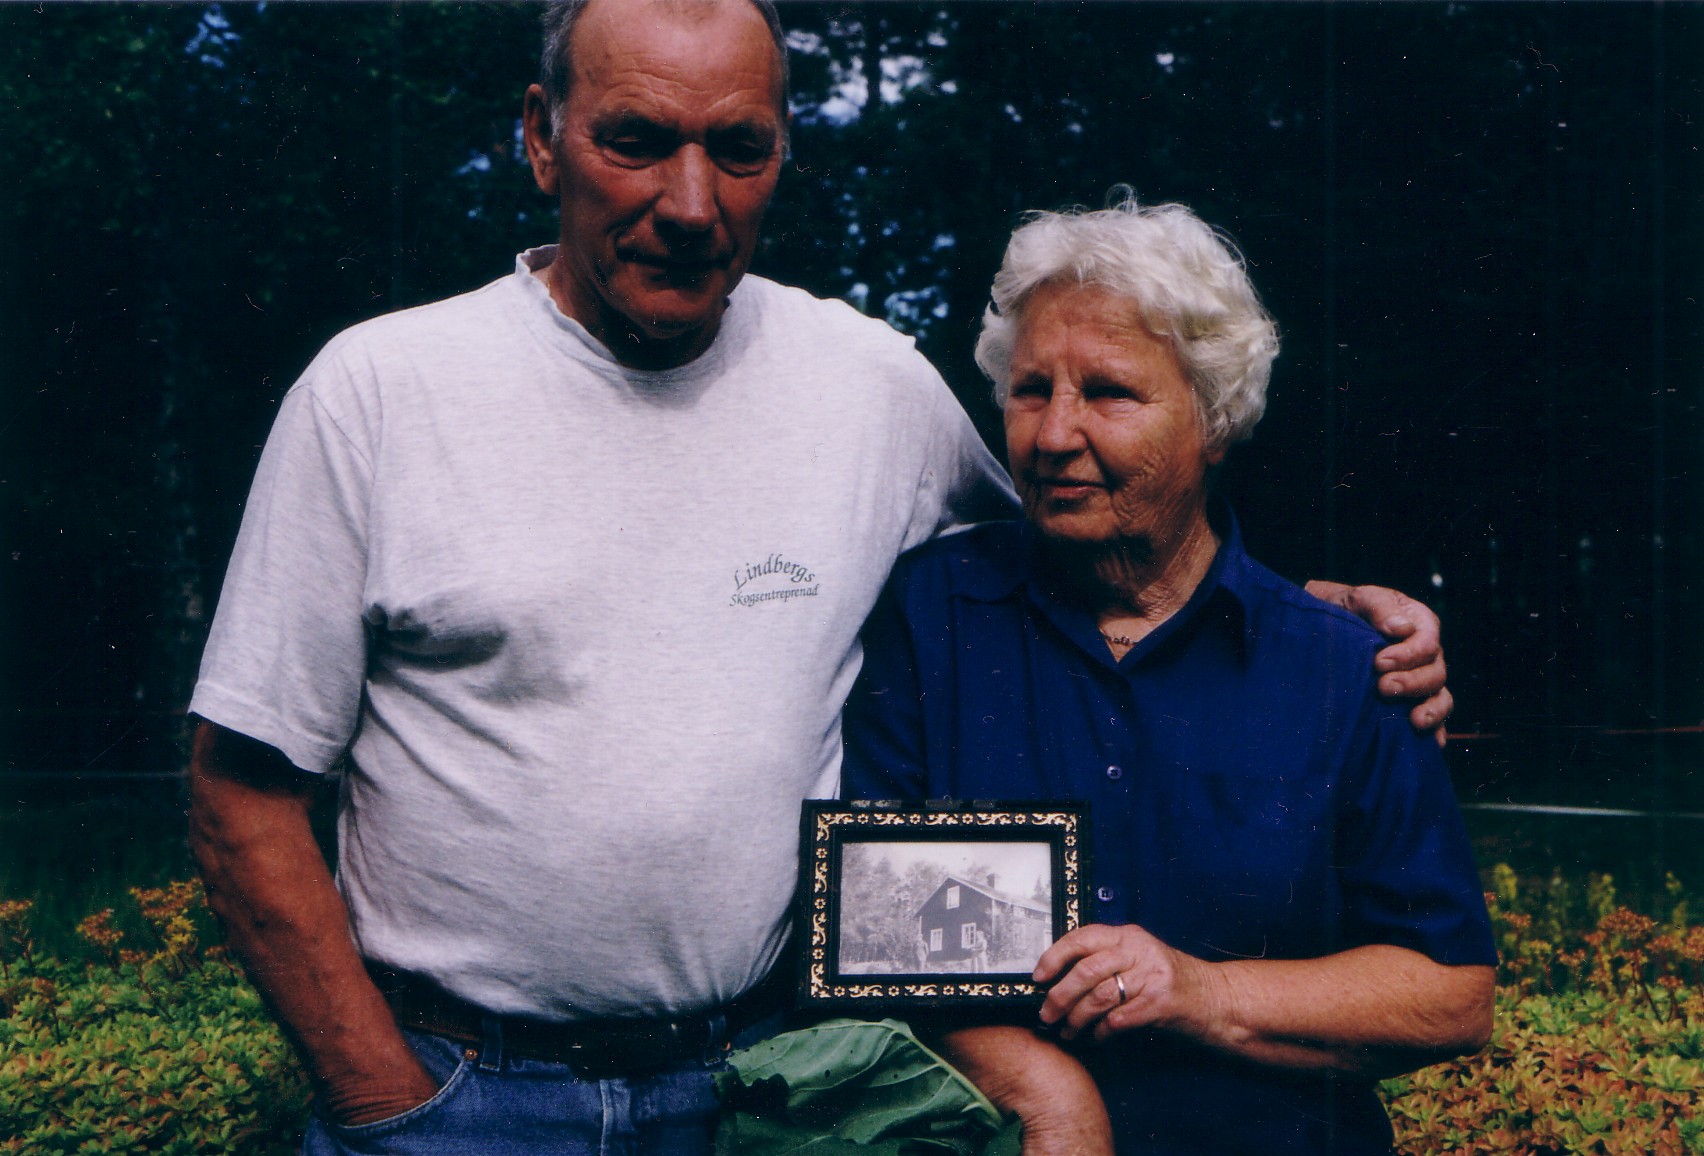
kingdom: Plantae
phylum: Tracheophyta
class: Magnoliopsida
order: Brassicales
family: Brassicaceae
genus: Brassica
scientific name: Brassica napus
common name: Rape
